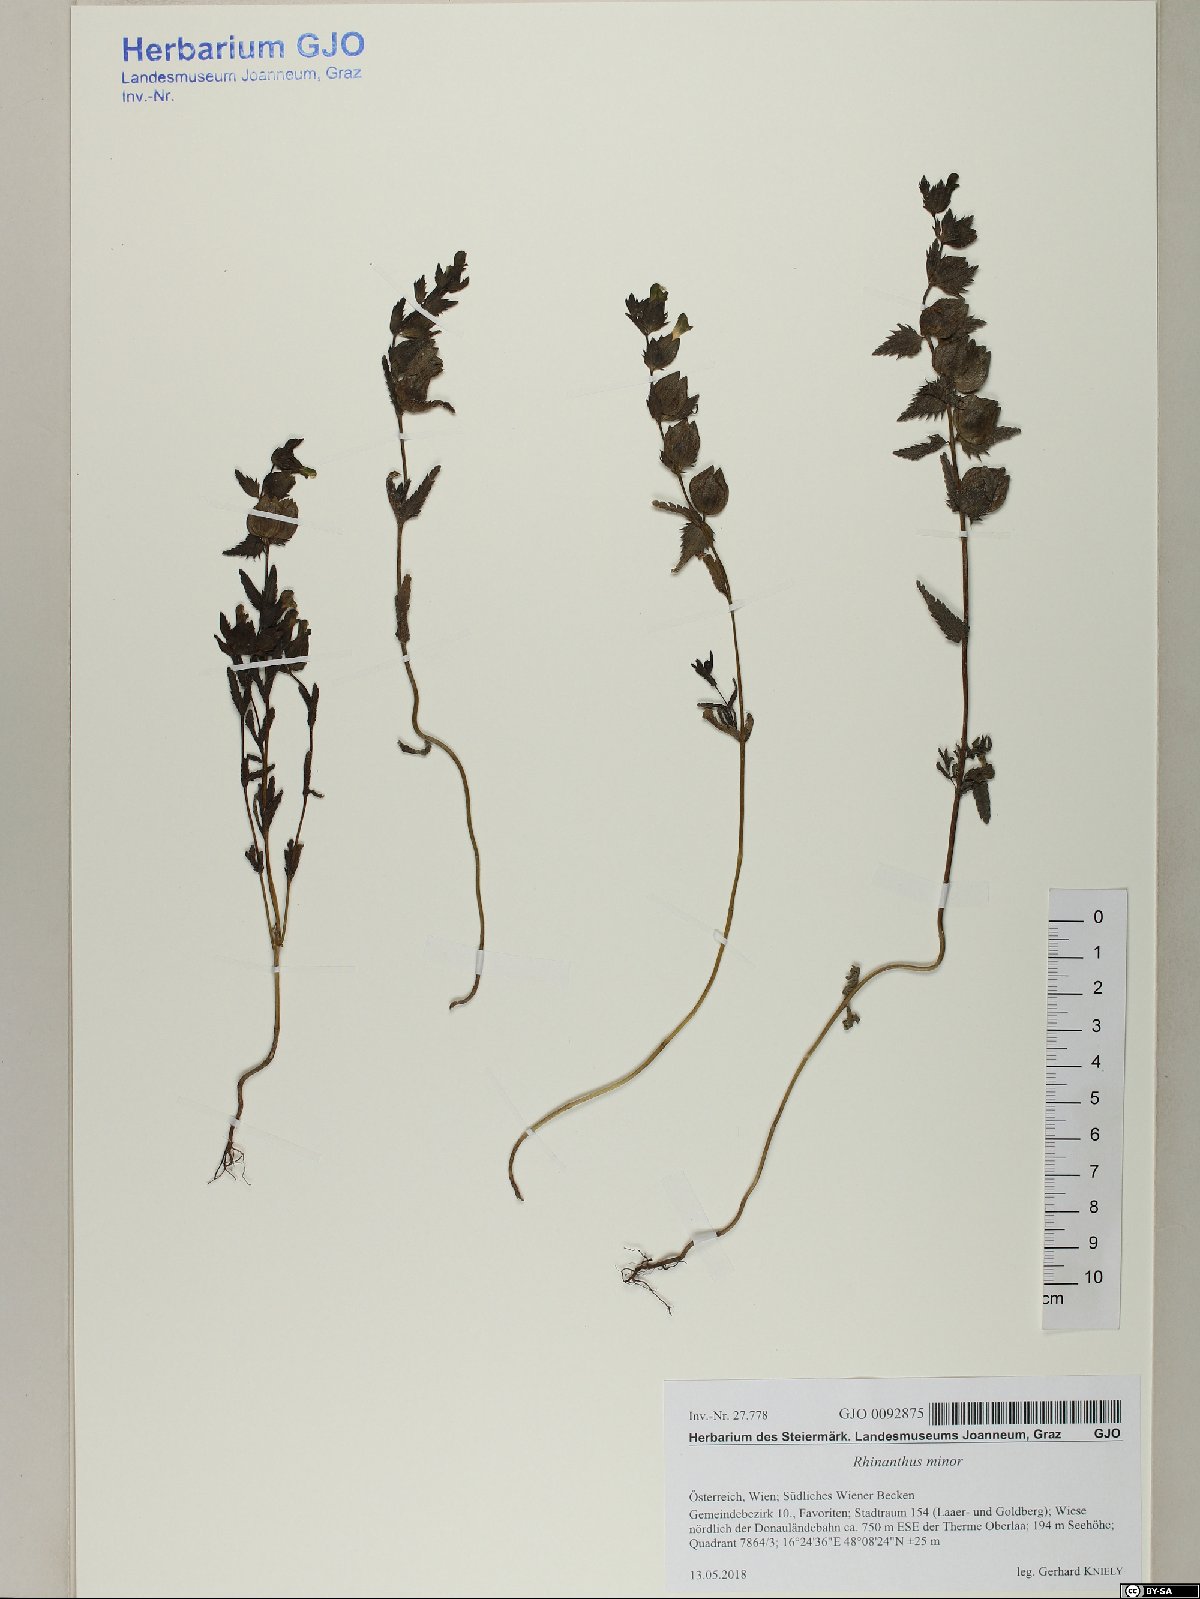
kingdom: Plantae
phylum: Tracheophyta
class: Magnoliopsida
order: Lamiales
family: Orobanchaceae
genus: Rhinanthus
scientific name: Rhinanthus minor
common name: Yellow-rattle
